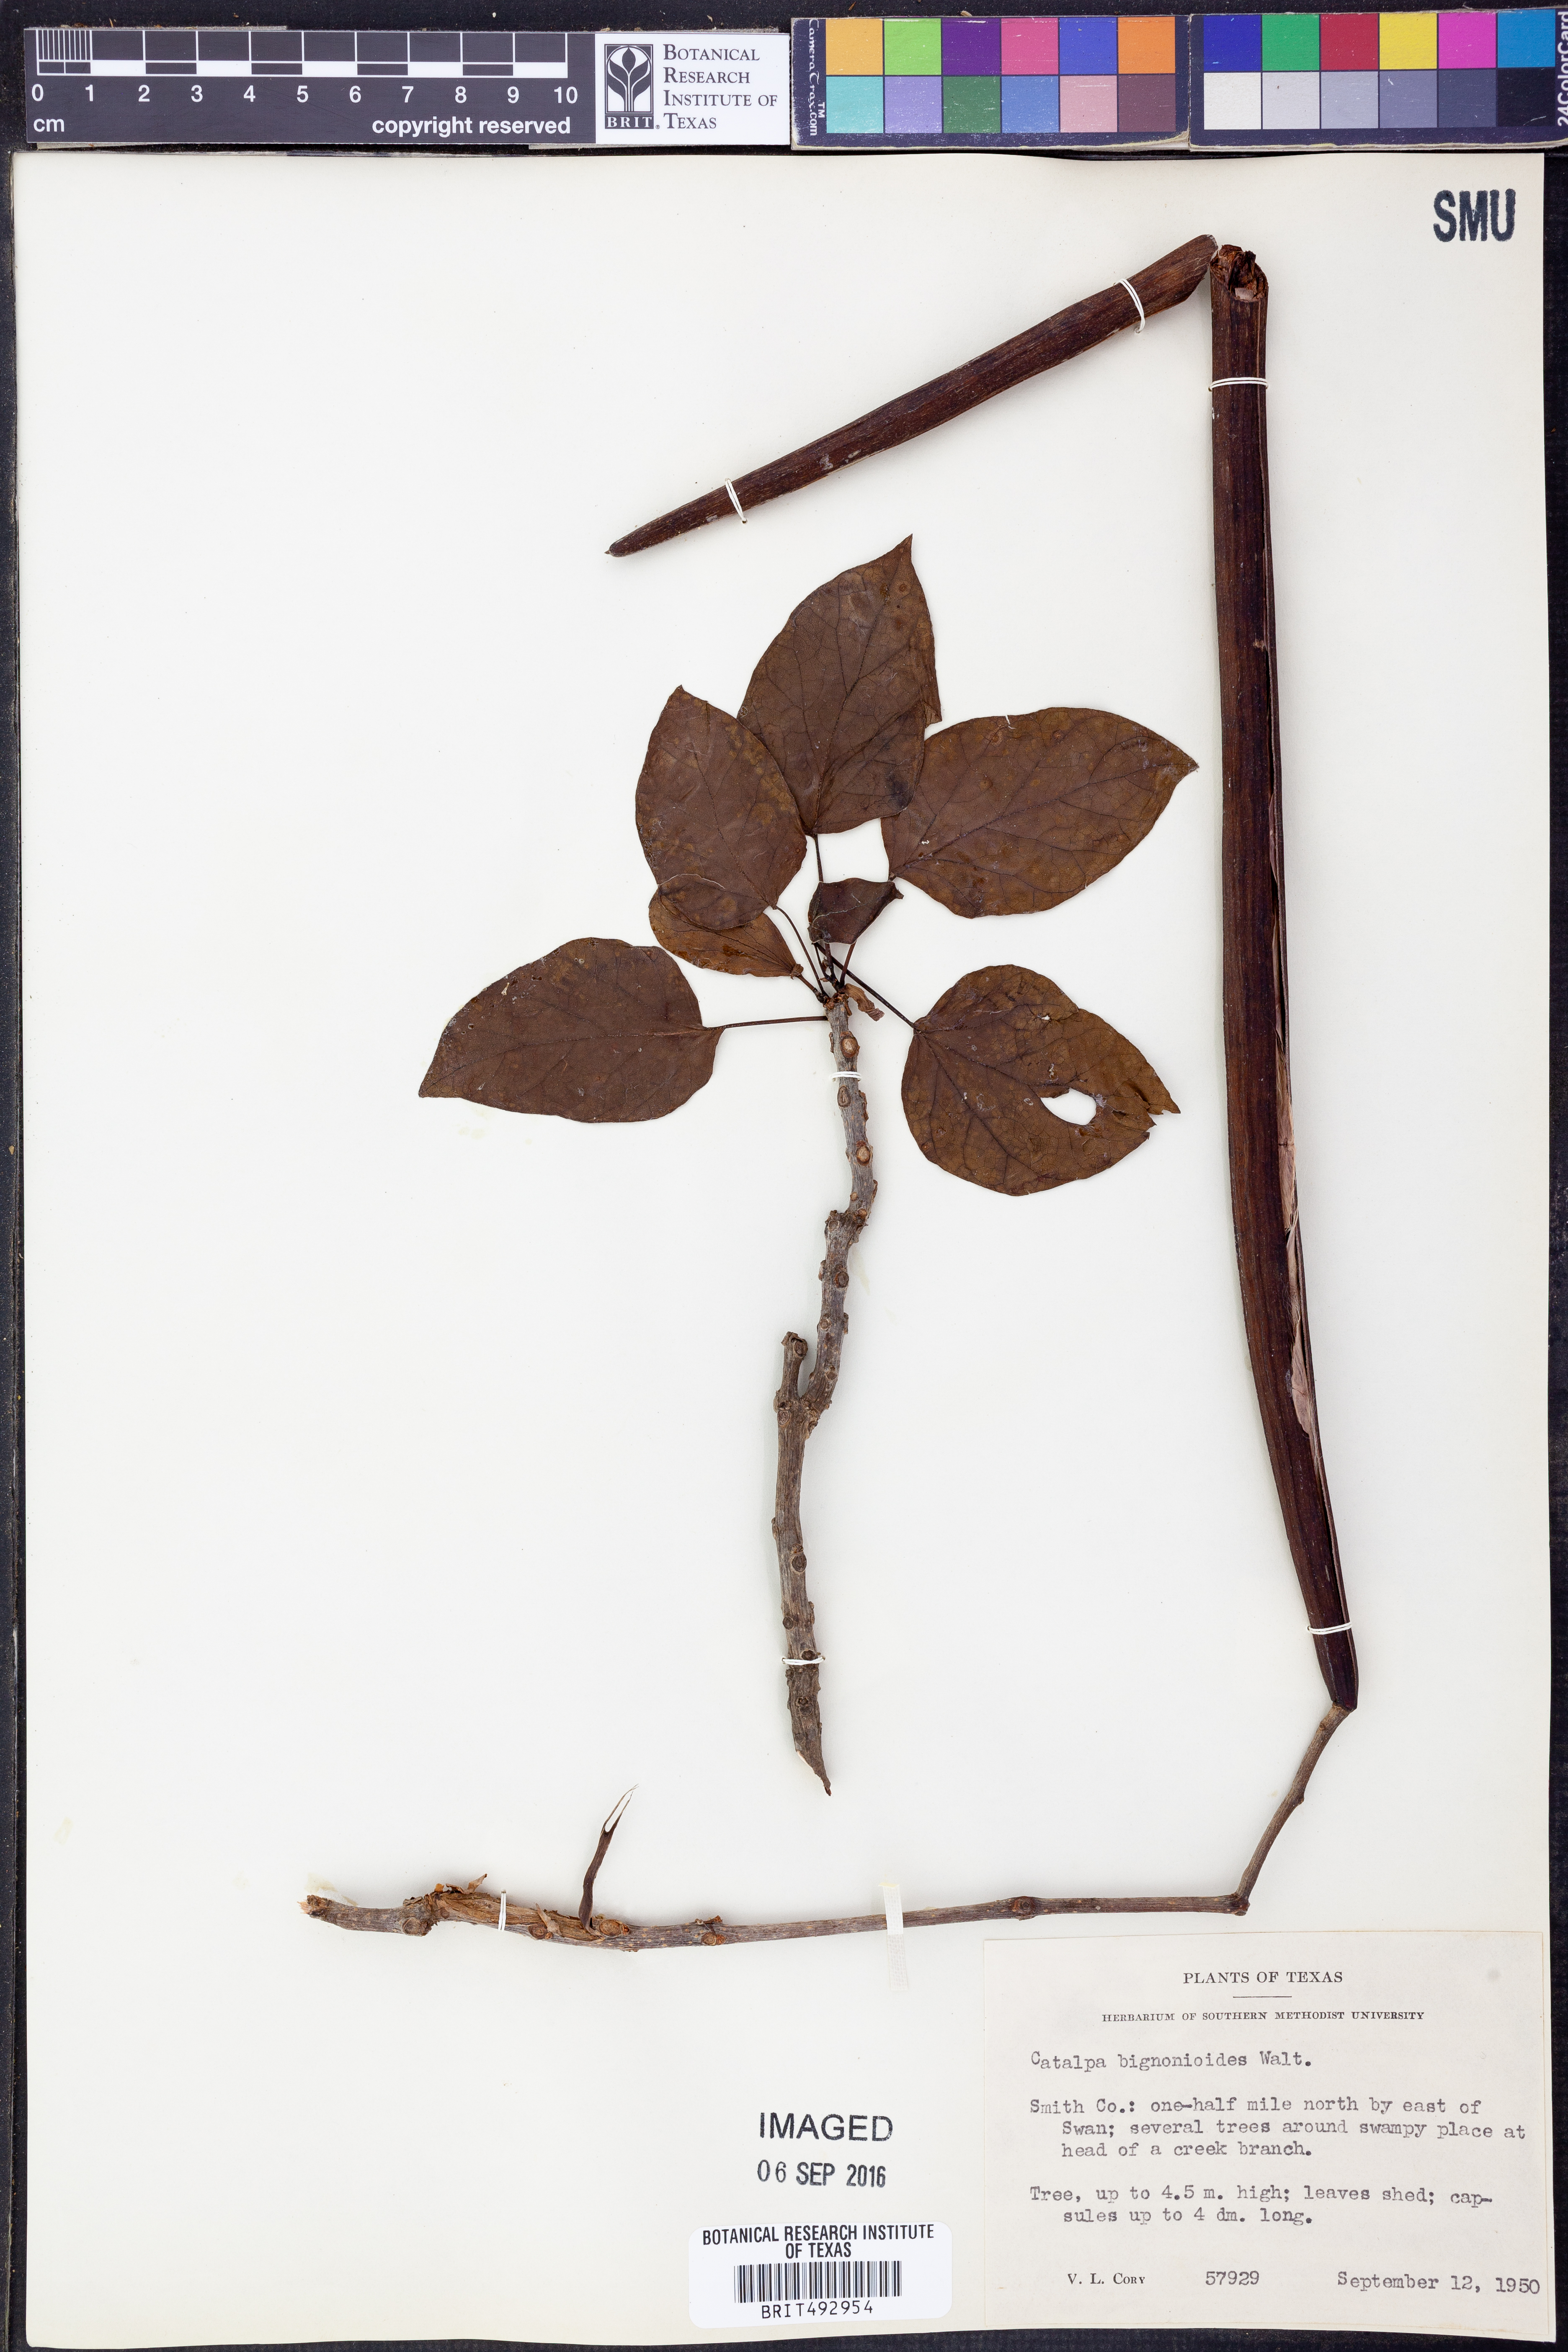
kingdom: Plantae
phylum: Tracheophyta
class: Magnoliopsida
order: Lamiales
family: Bignoniaceae
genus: Catalpa
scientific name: Catalpa bignonioides
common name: Southern catalpa
